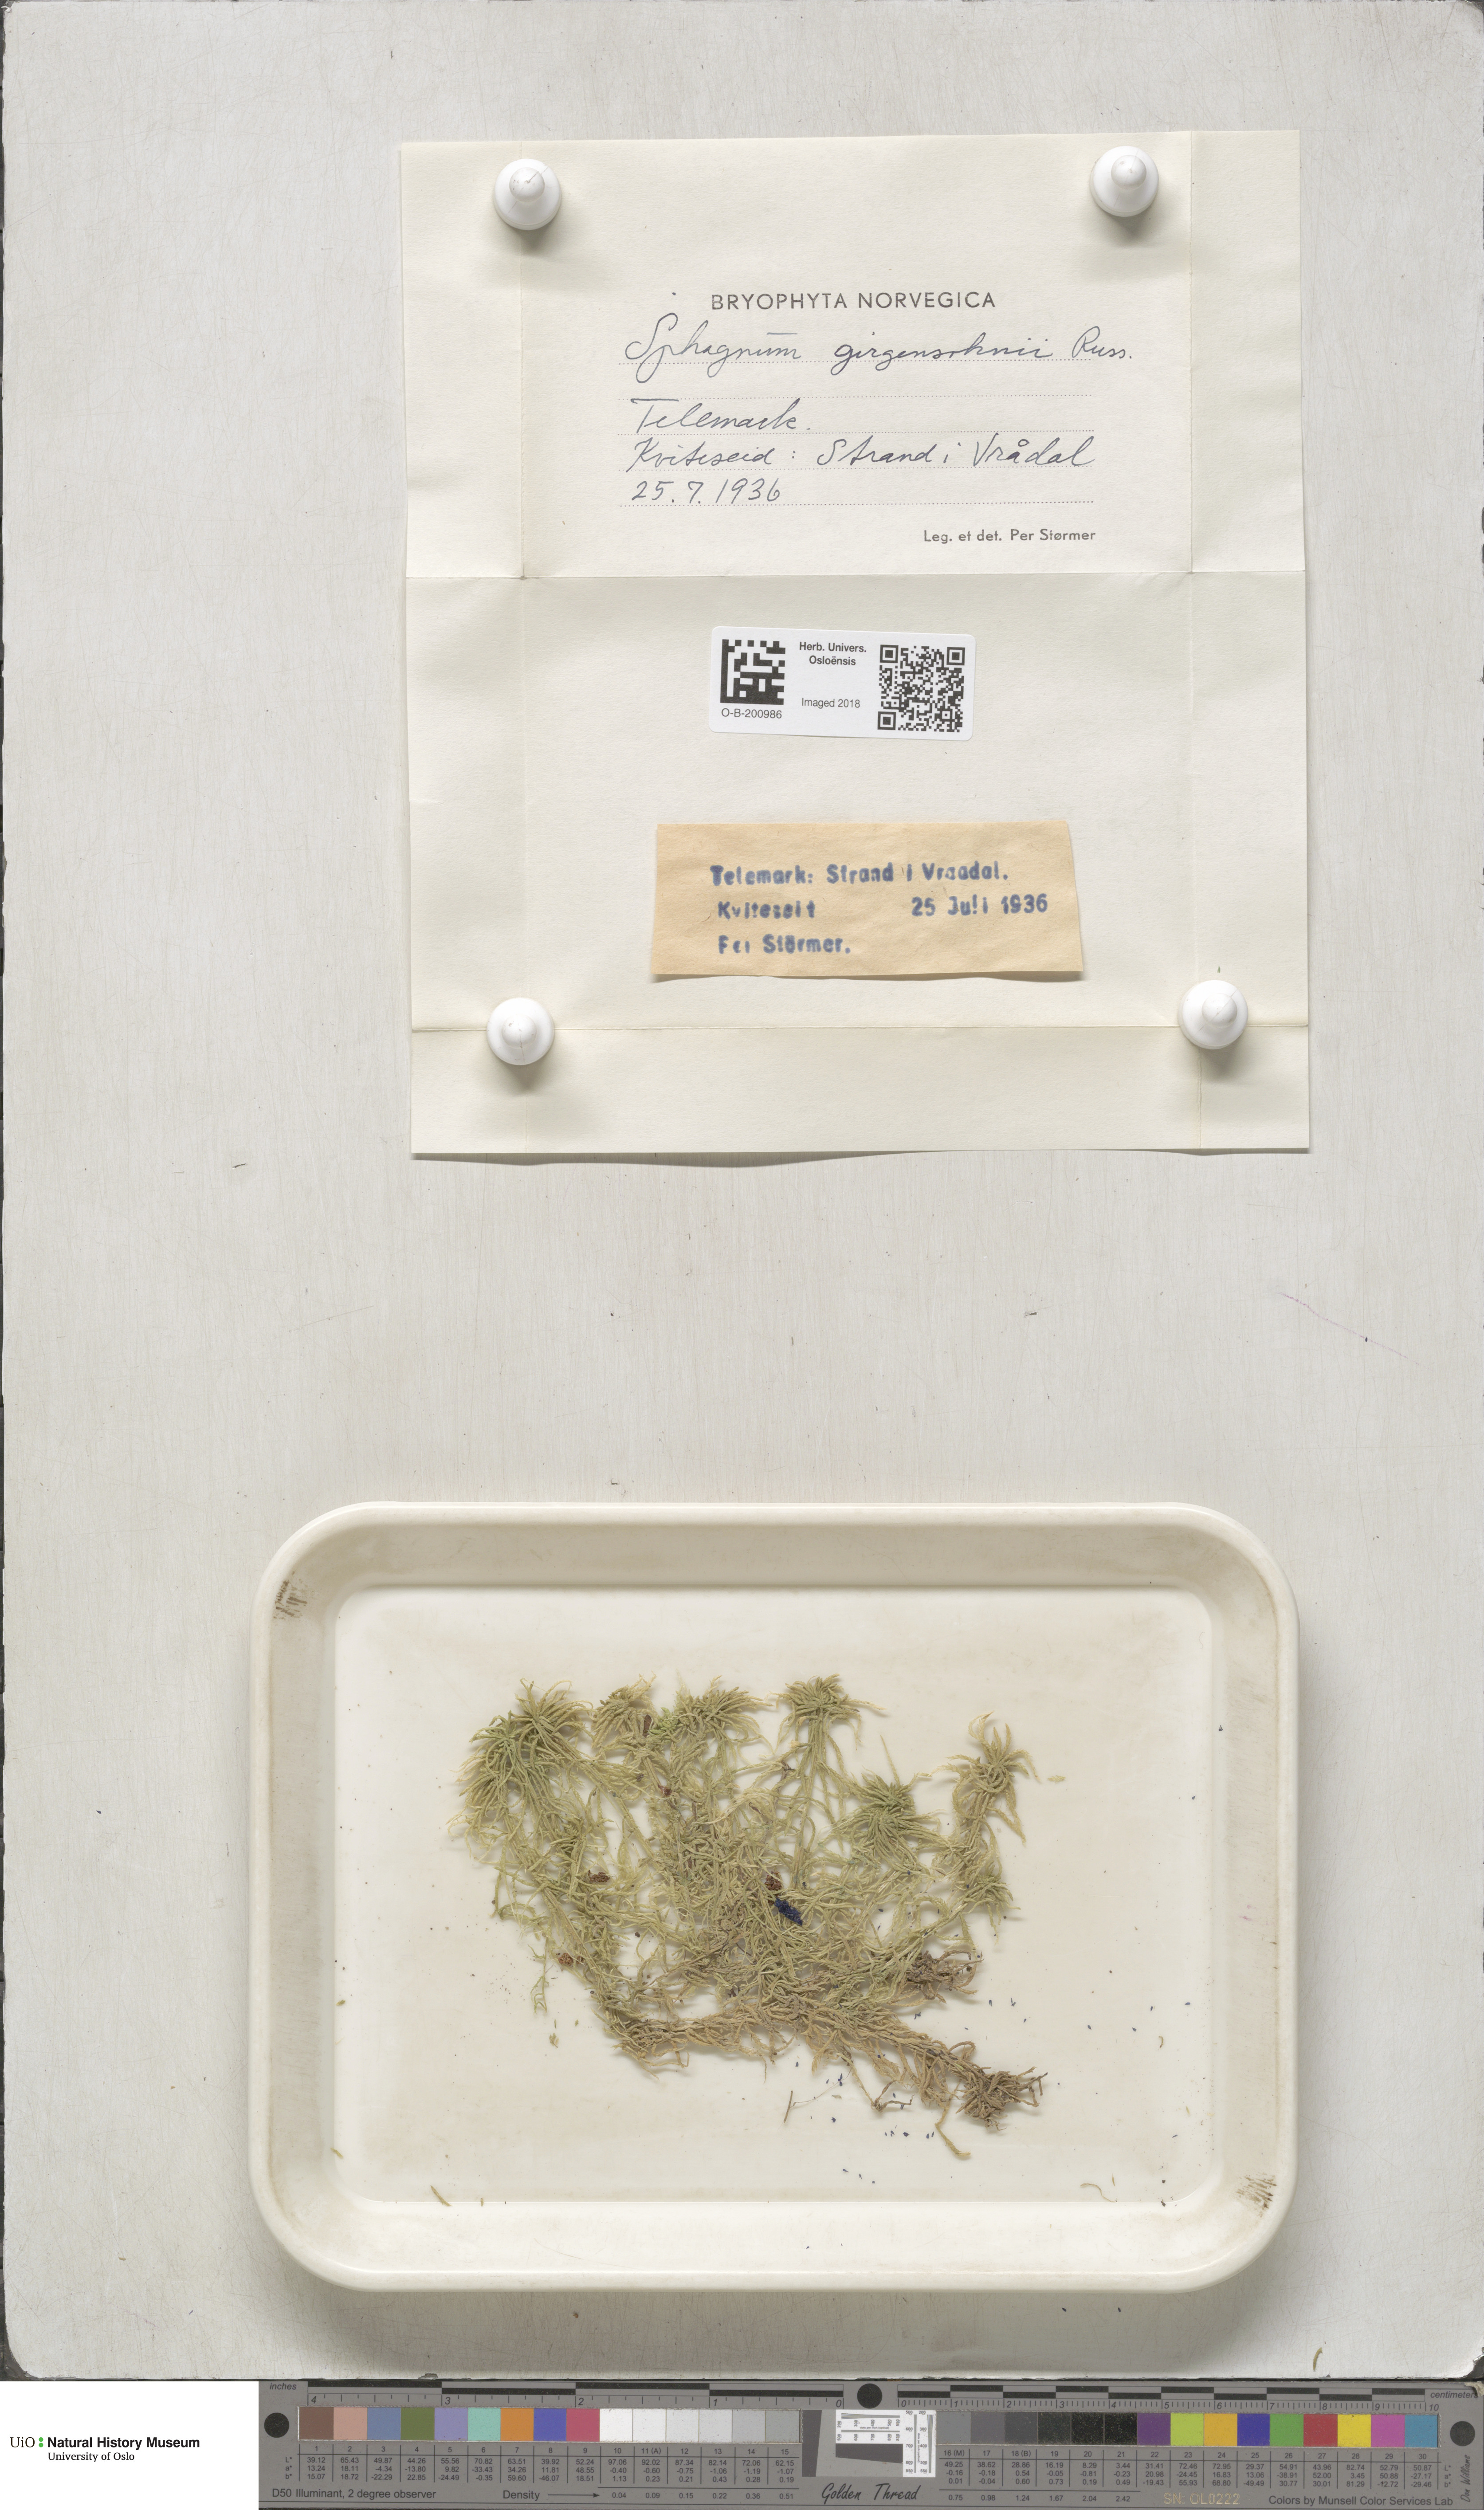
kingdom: Plantae
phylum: Bryophyta
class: Sphagnopsida
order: Sphagnales
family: Sphagnaceae
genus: Sphagnum
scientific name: Sphagnum girgensohnii
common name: Girgensohn's peat moss
